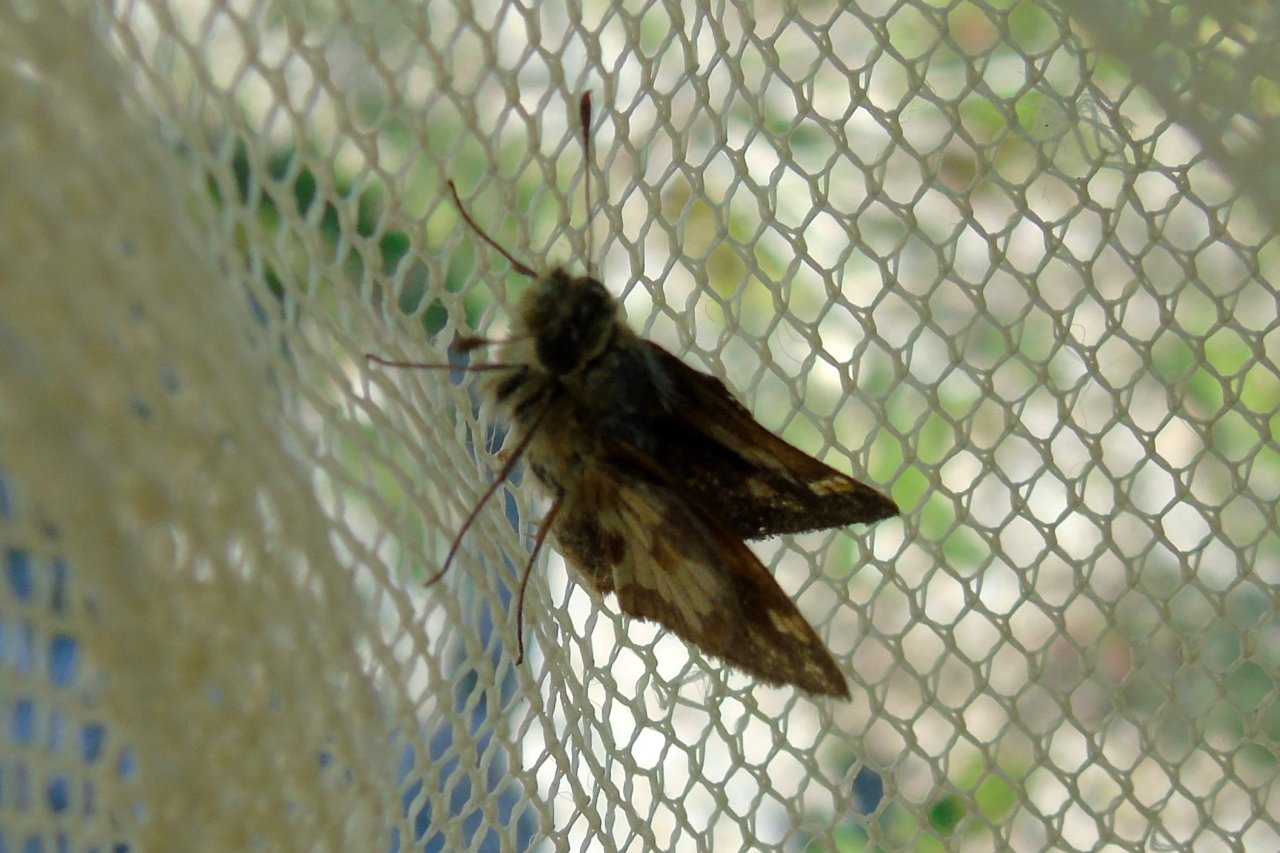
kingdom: Animalia
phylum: Arthropoda
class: Insecta
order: Lepidoptera
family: Hesperiidae
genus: Polites
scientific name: Polites coras
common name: Peck's Skipper
